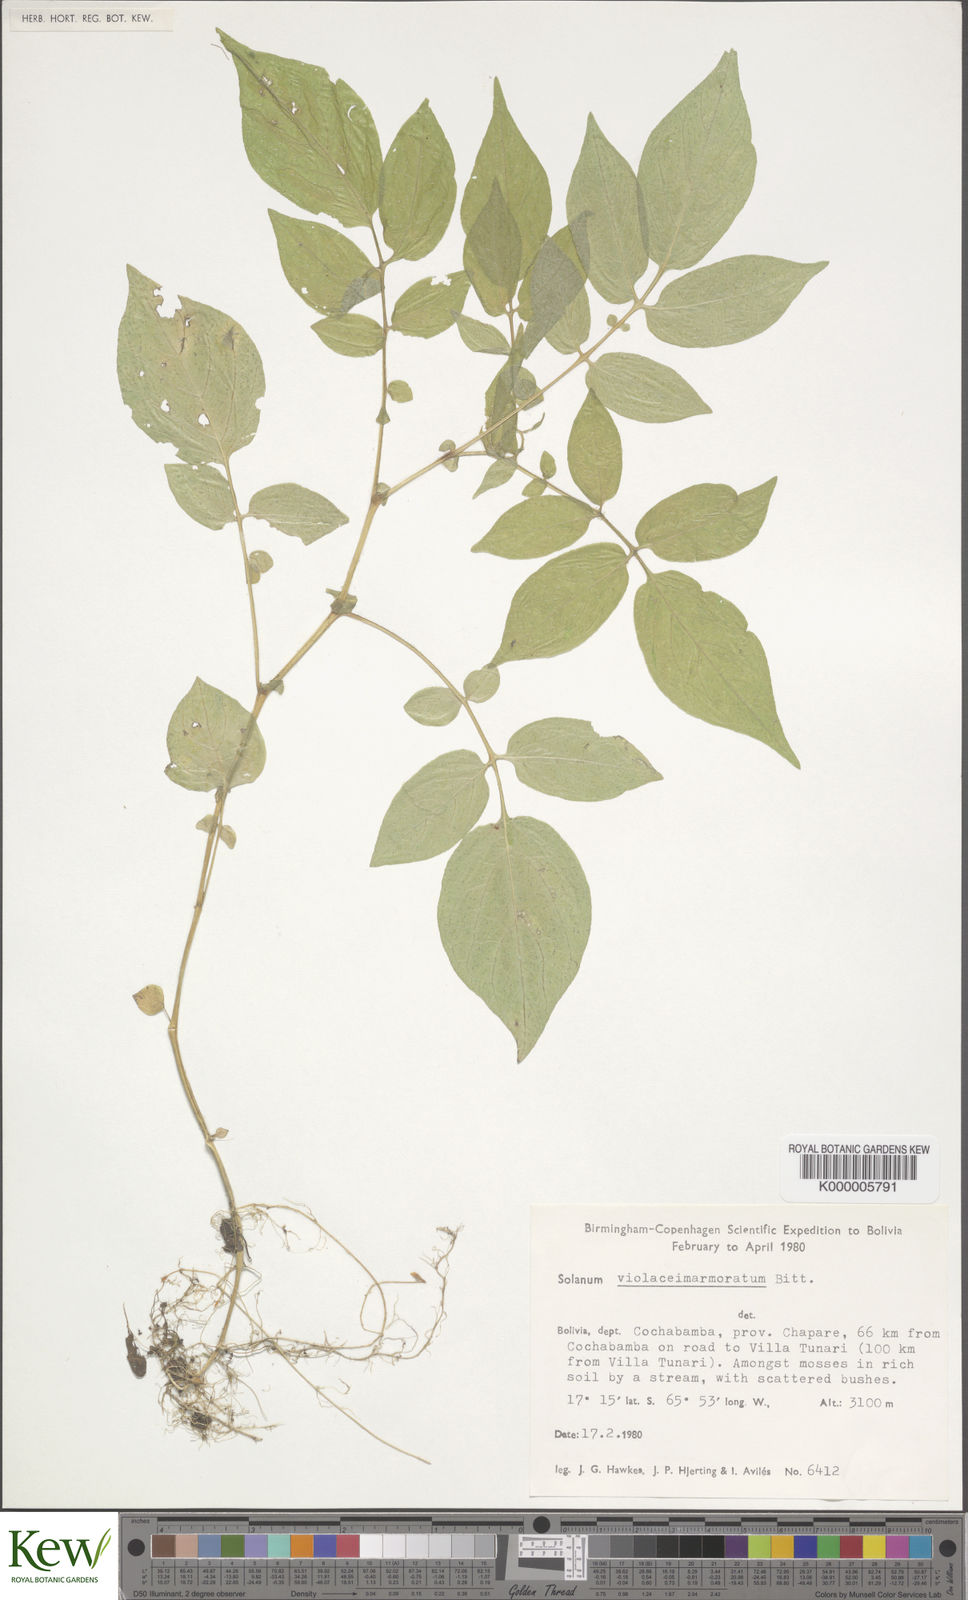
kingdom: Plantae
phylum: Tracheophyta
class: Magnoliopsida
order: Solanales
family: Solanaceae
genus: Solanum
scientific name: Solanum violaceimarmoratum
